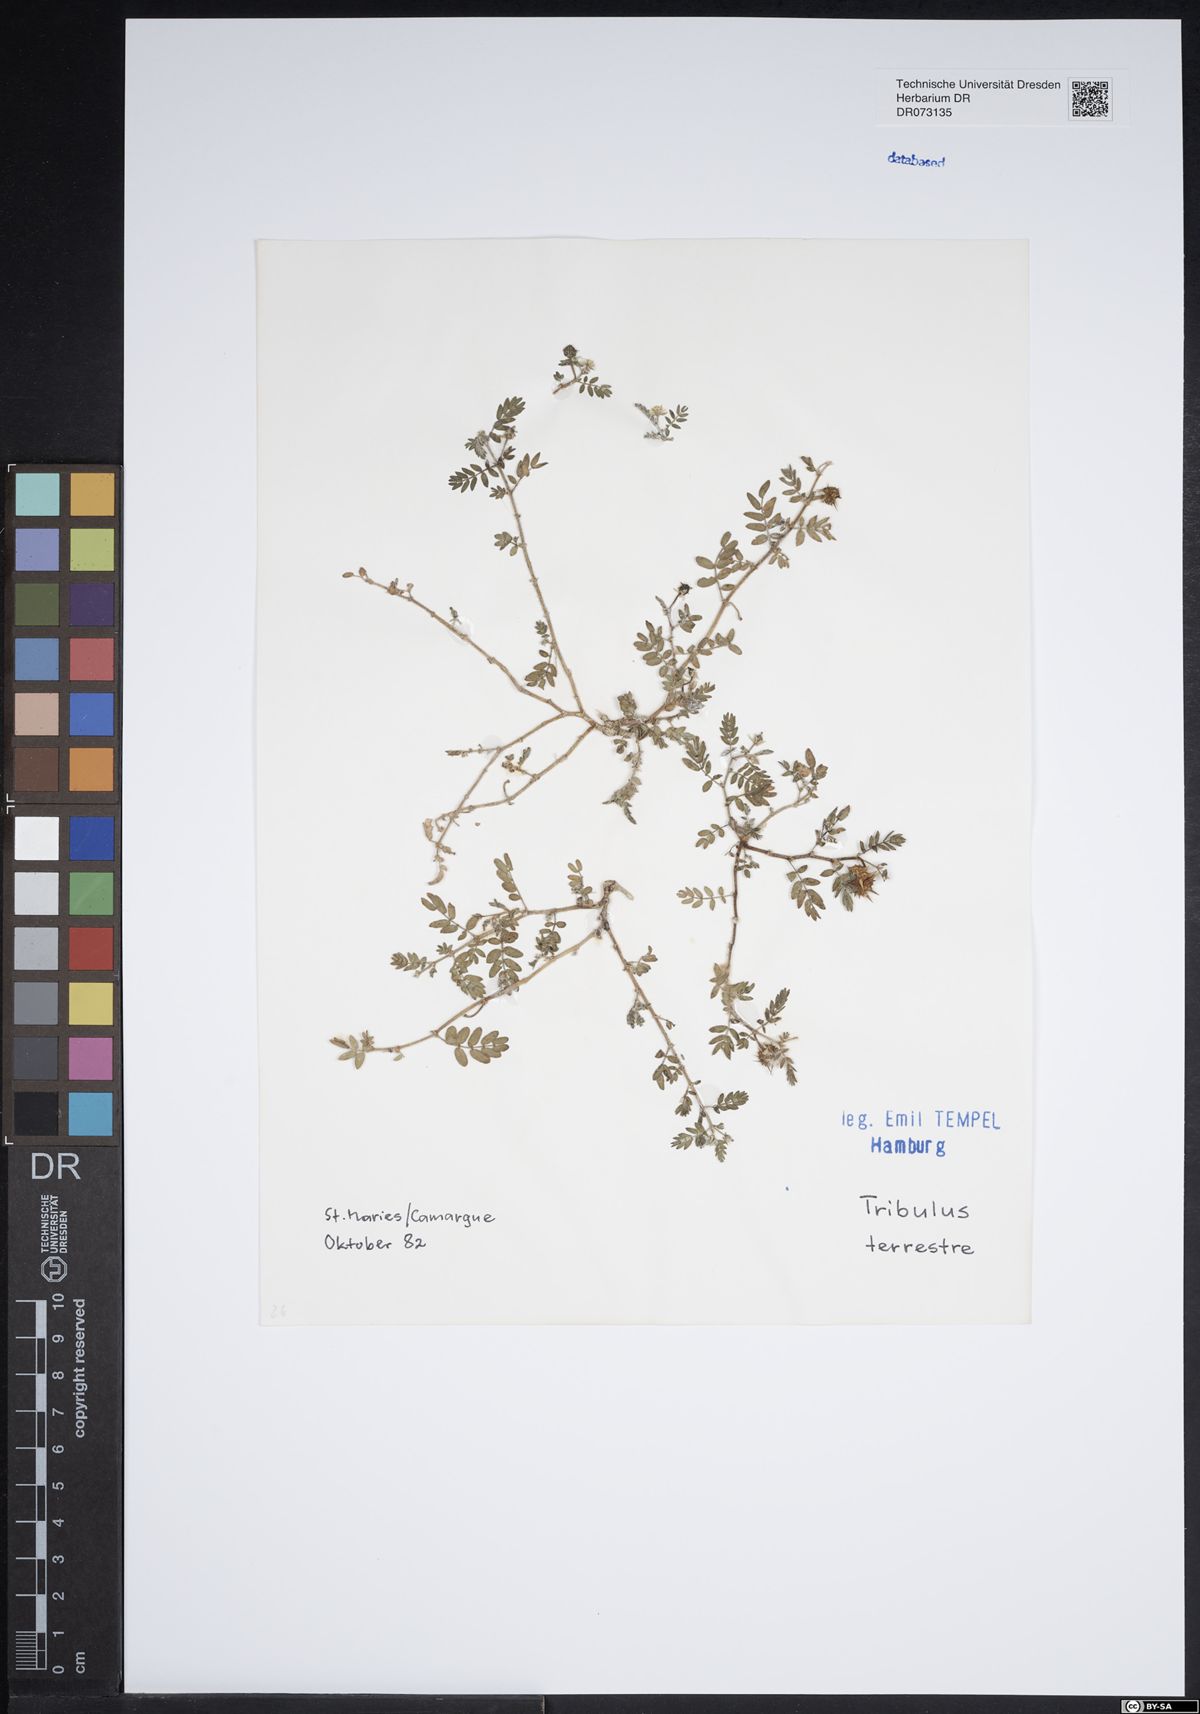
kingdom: Plantae
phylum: Tracheophyta
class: Magnoliopsida
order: Zygophyllales
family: Zygophyllaceae
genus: Tribulus
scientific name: Tribulus terrestris
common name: Puncturevine
